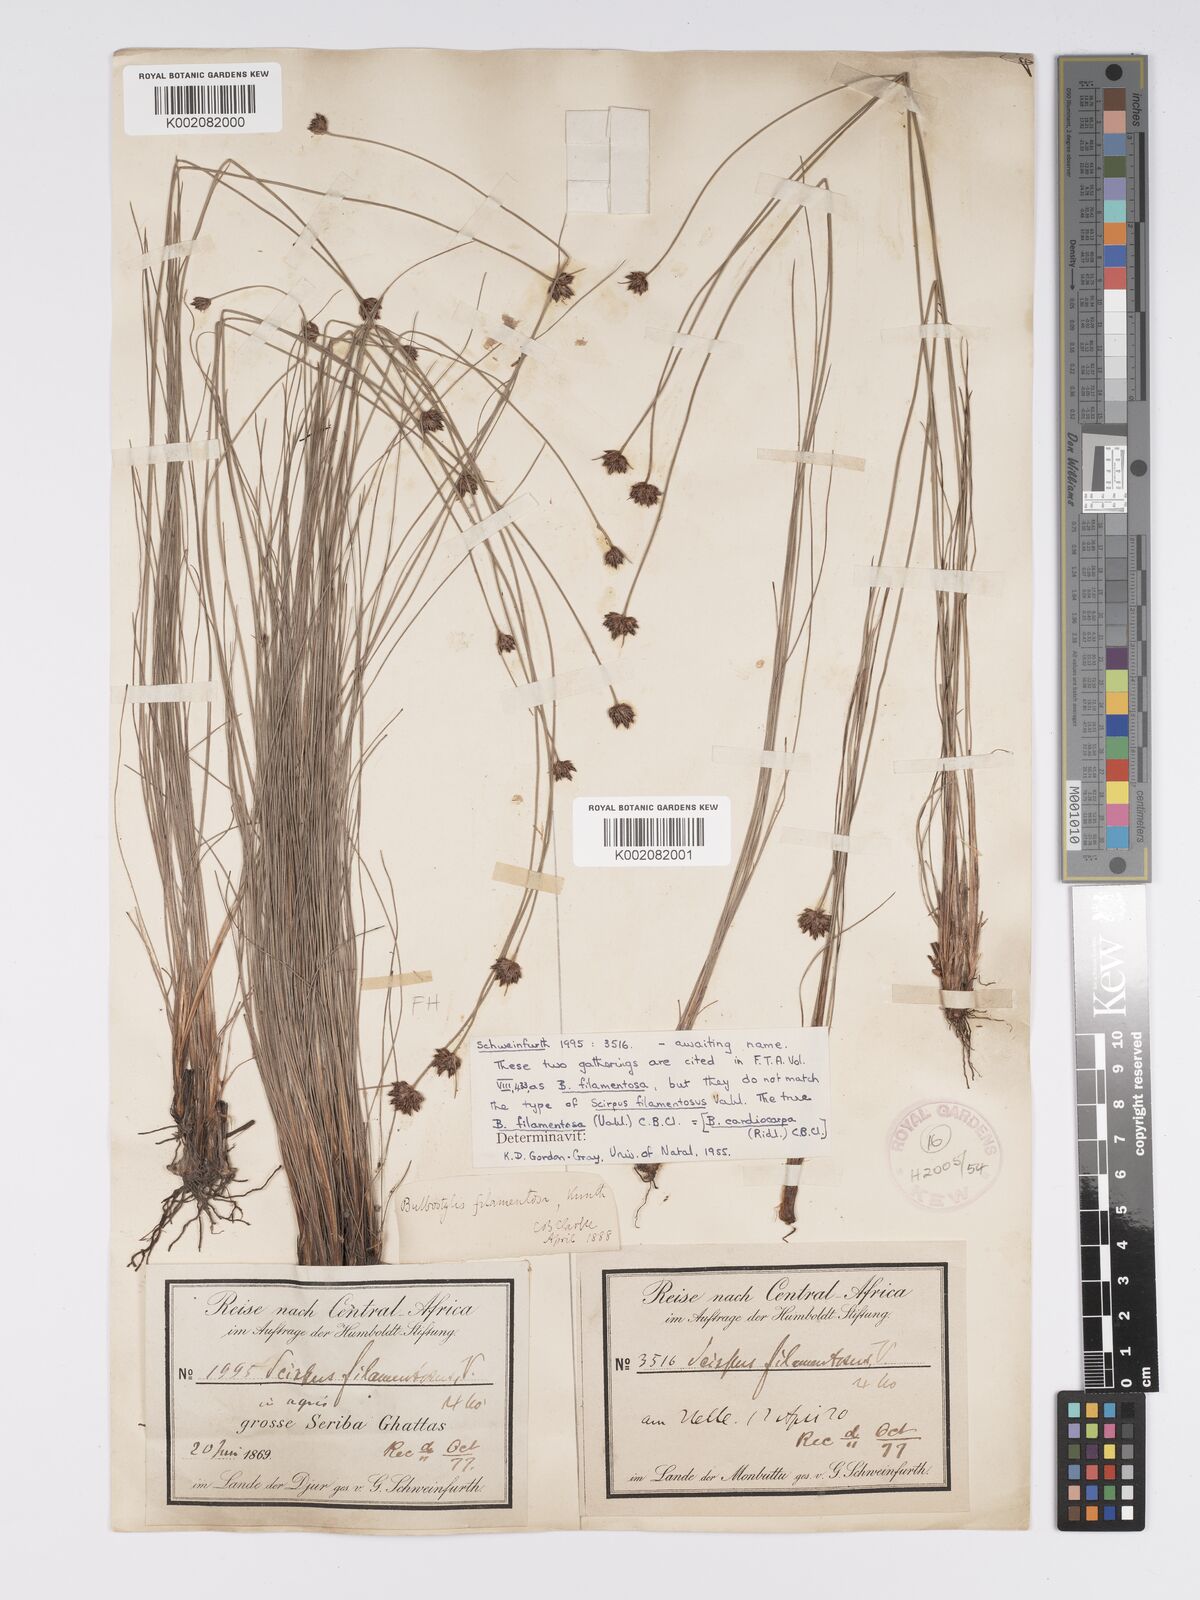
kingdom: Plantae
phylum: Tracheophyta
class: Liliopsida
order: Poales
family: Cyperaceae
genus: Bulbostylis
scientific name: Bulbostylis scabricaulis
